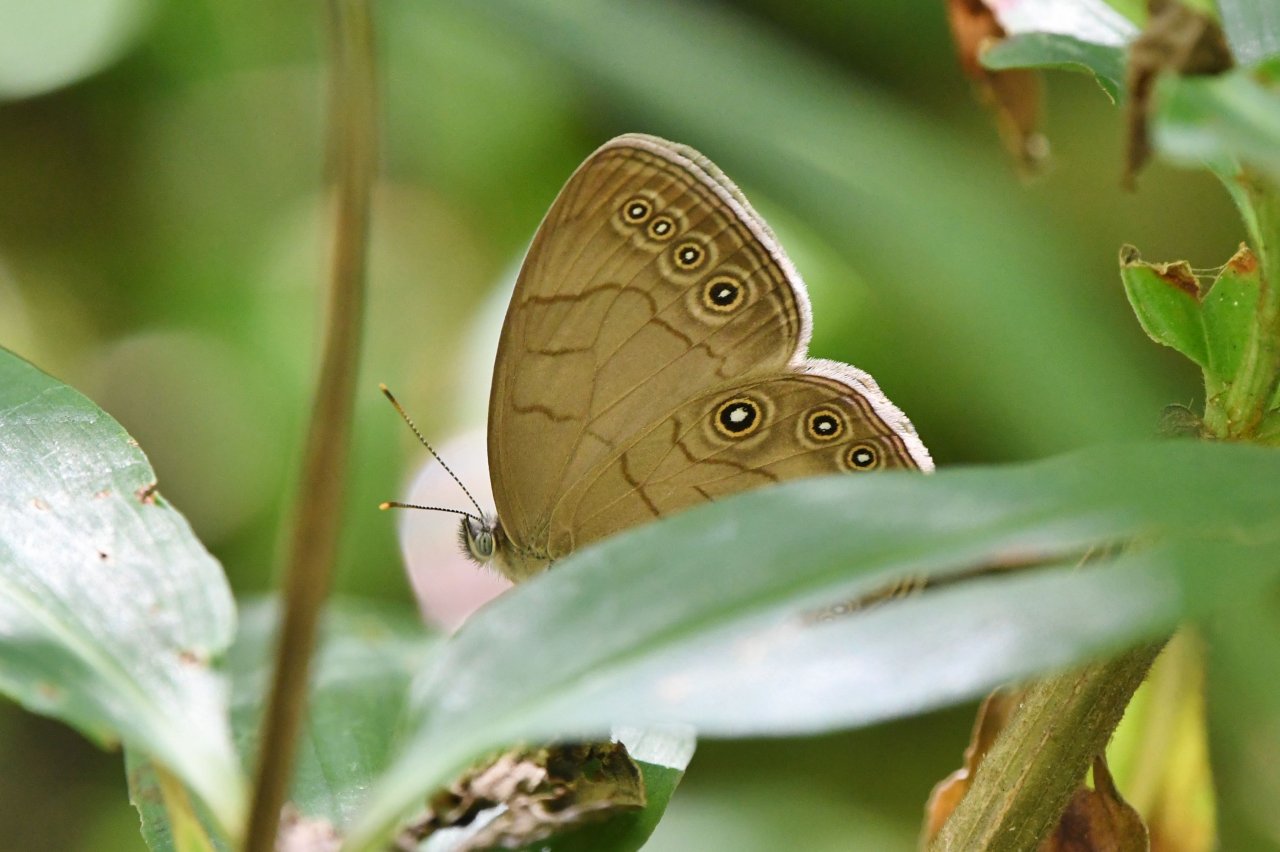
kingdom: Animalia
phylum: Arthropoda
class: Insecta
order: Lepidoptera
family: Nymphalidae
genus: Lethe
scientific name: Lethe eurydice
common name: Appalachian Eyed Brown
